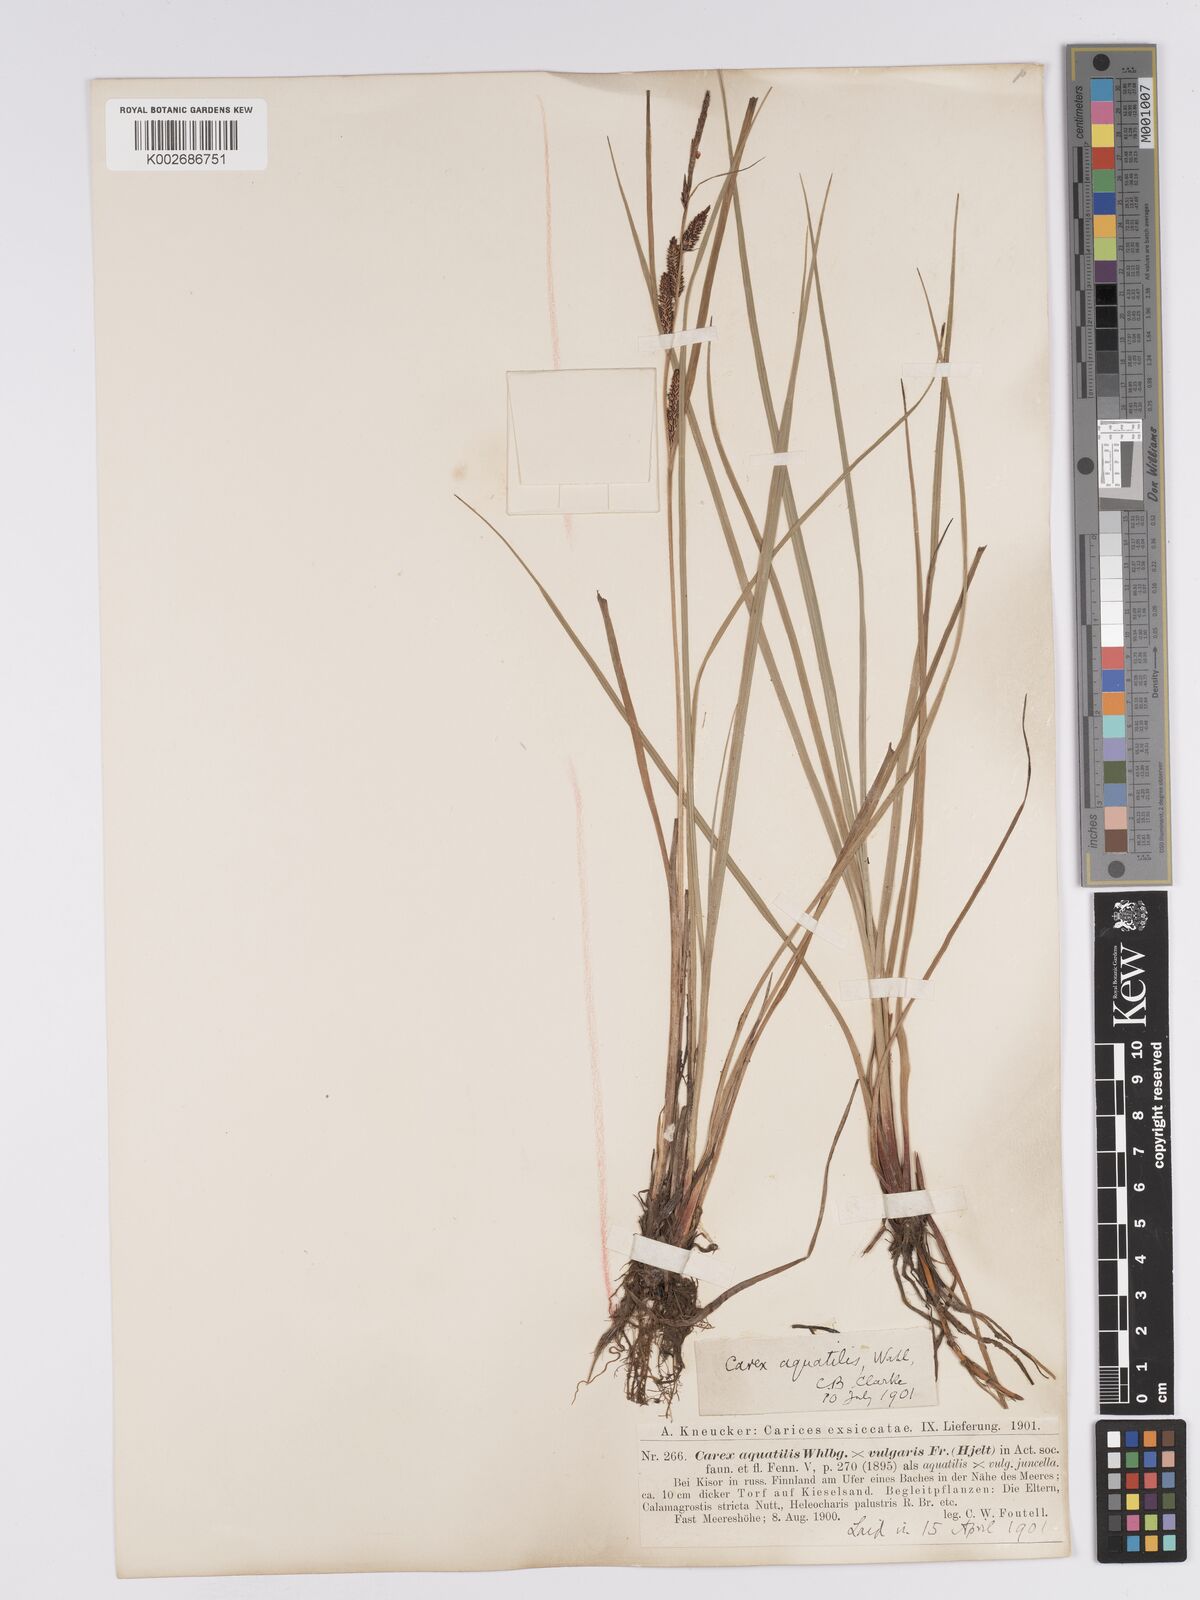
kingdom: Plantae
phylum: Tracheophyta
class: Liliopsida
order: Poales
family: Cyperaceae
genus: Carex
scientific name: Carex aquatilis
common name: Water sedge
